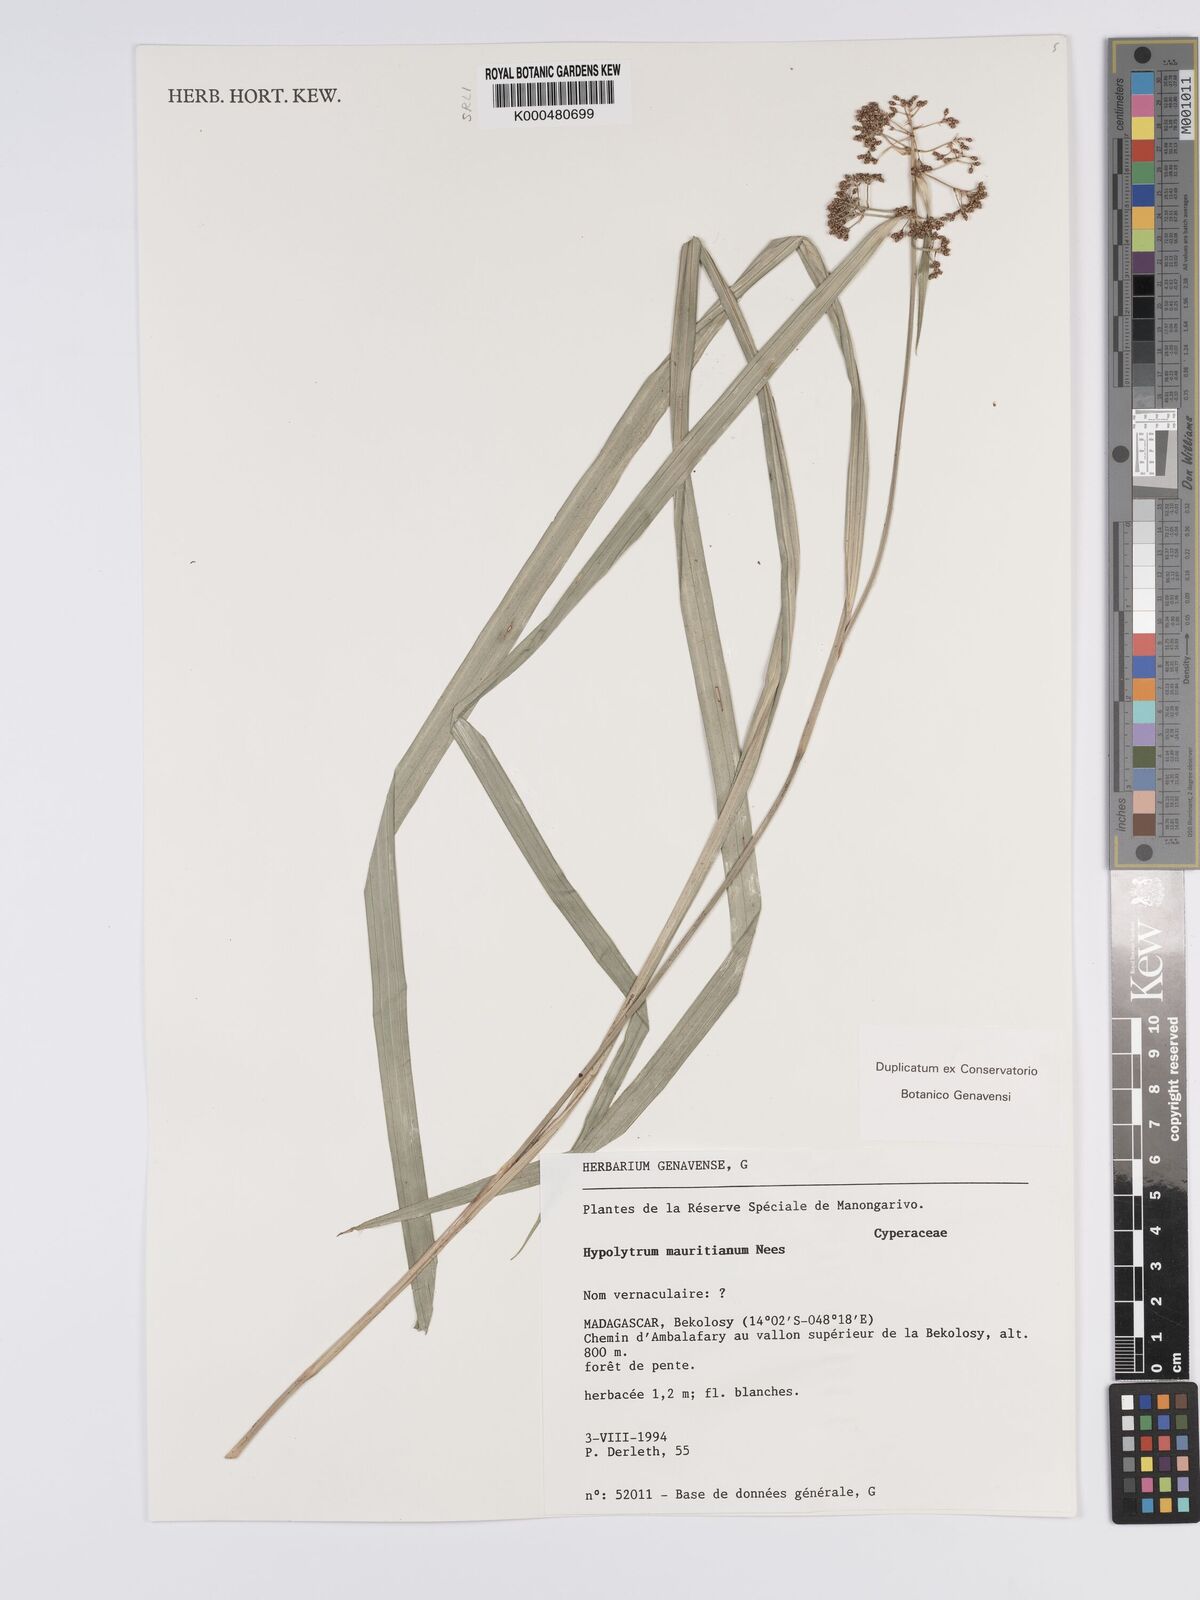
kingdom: Plantae
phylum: Tracheophyta
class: Liliopsida
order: Poales
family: Cyperaceae
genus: Hypolytrum
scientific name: Hypolytrum mauritianum
